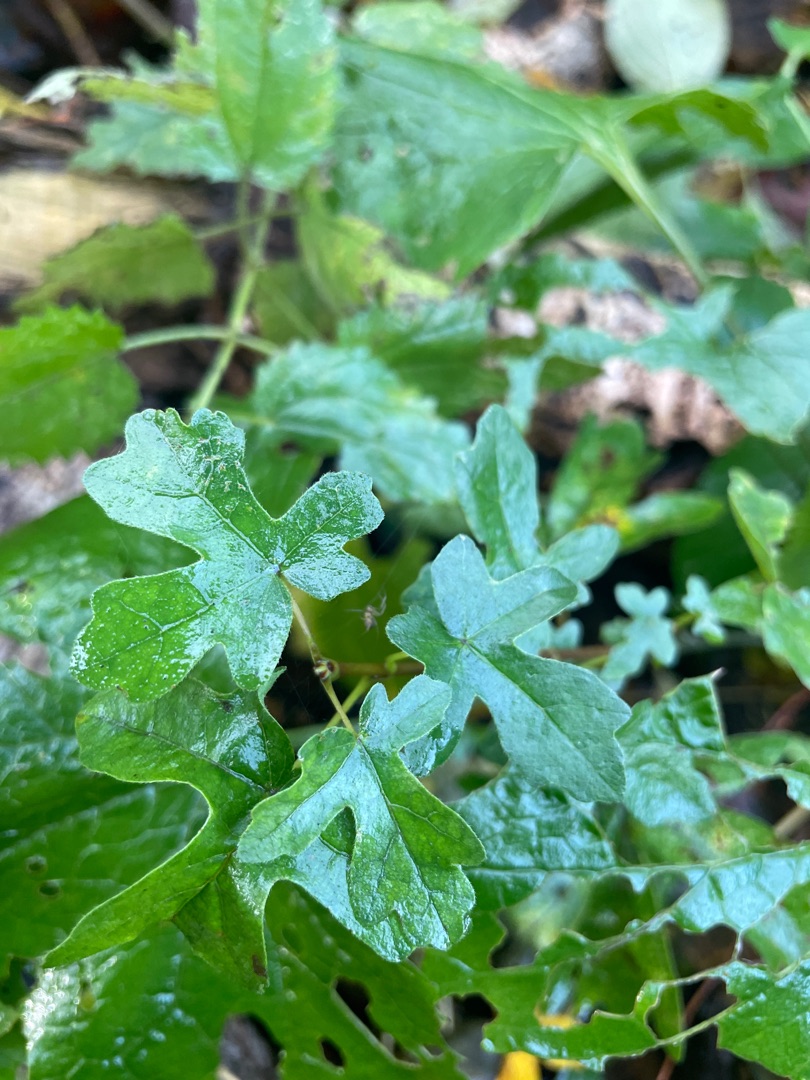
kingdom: Plantae
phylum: Tracheophyta
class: Magnoliopsida
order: Sapindales
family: Sapindaceae
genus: Acer
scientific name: Acer campestre
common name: Navr
